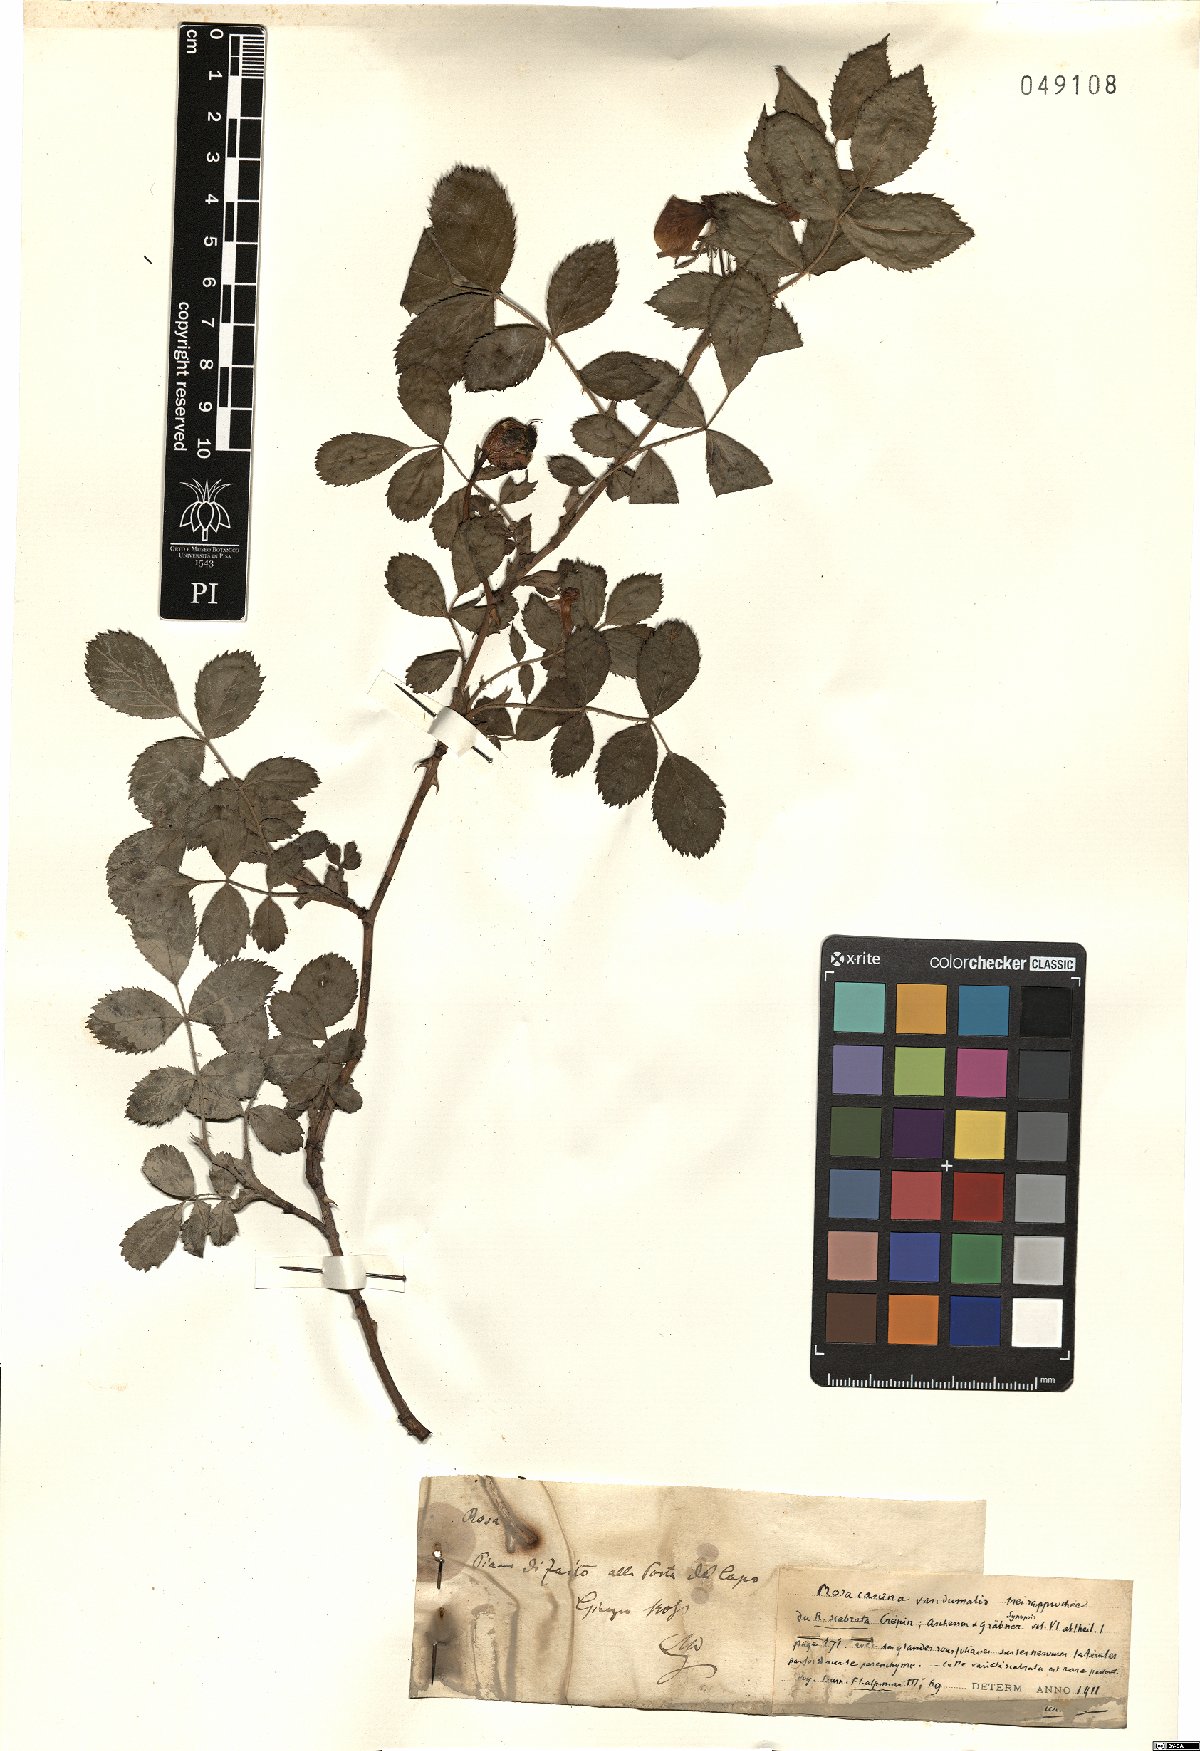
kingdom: Plantae
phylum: Tracheophyta
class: Magnoliopsida
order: Rosales
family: Rosaceae
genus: Rosa
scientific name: Rosa subcanina
